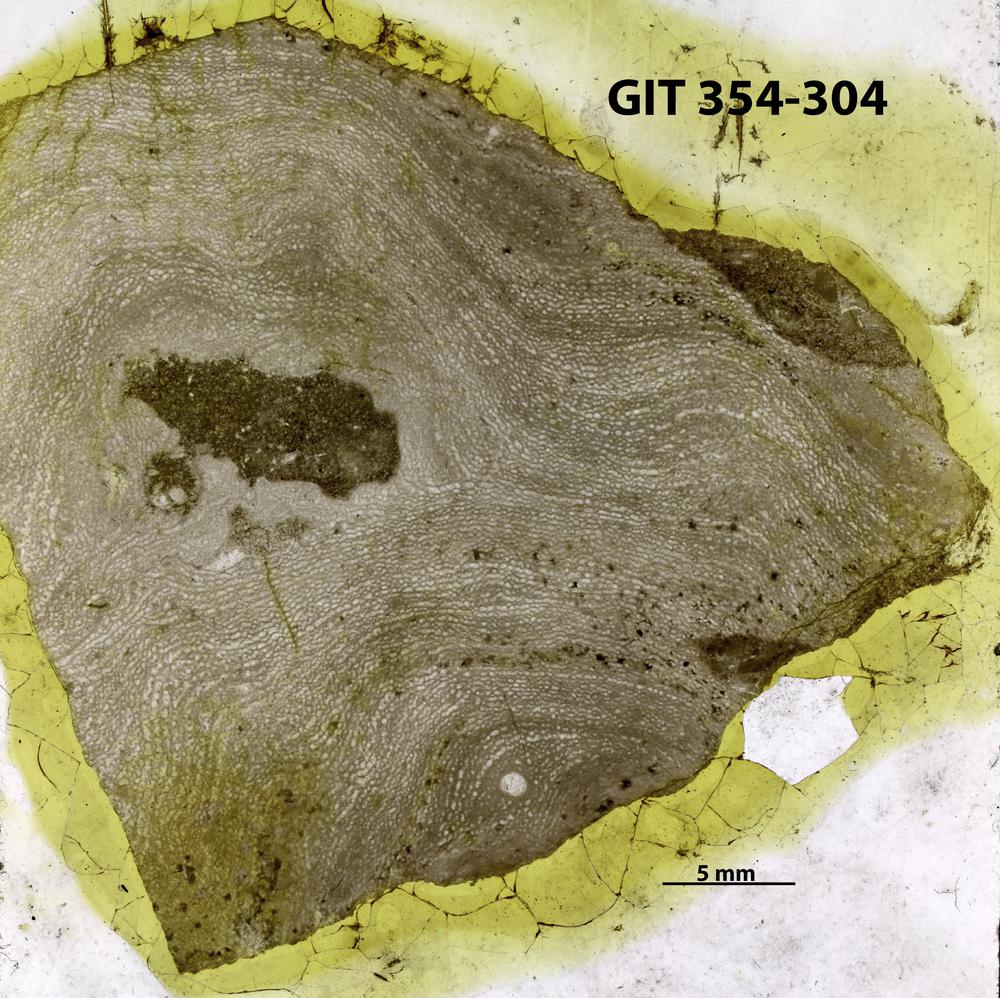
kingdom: Animalia
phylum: Porifera
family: Clathrodictyidae
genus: Clathrodictyon
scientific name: Clathrodictyon sulevi
